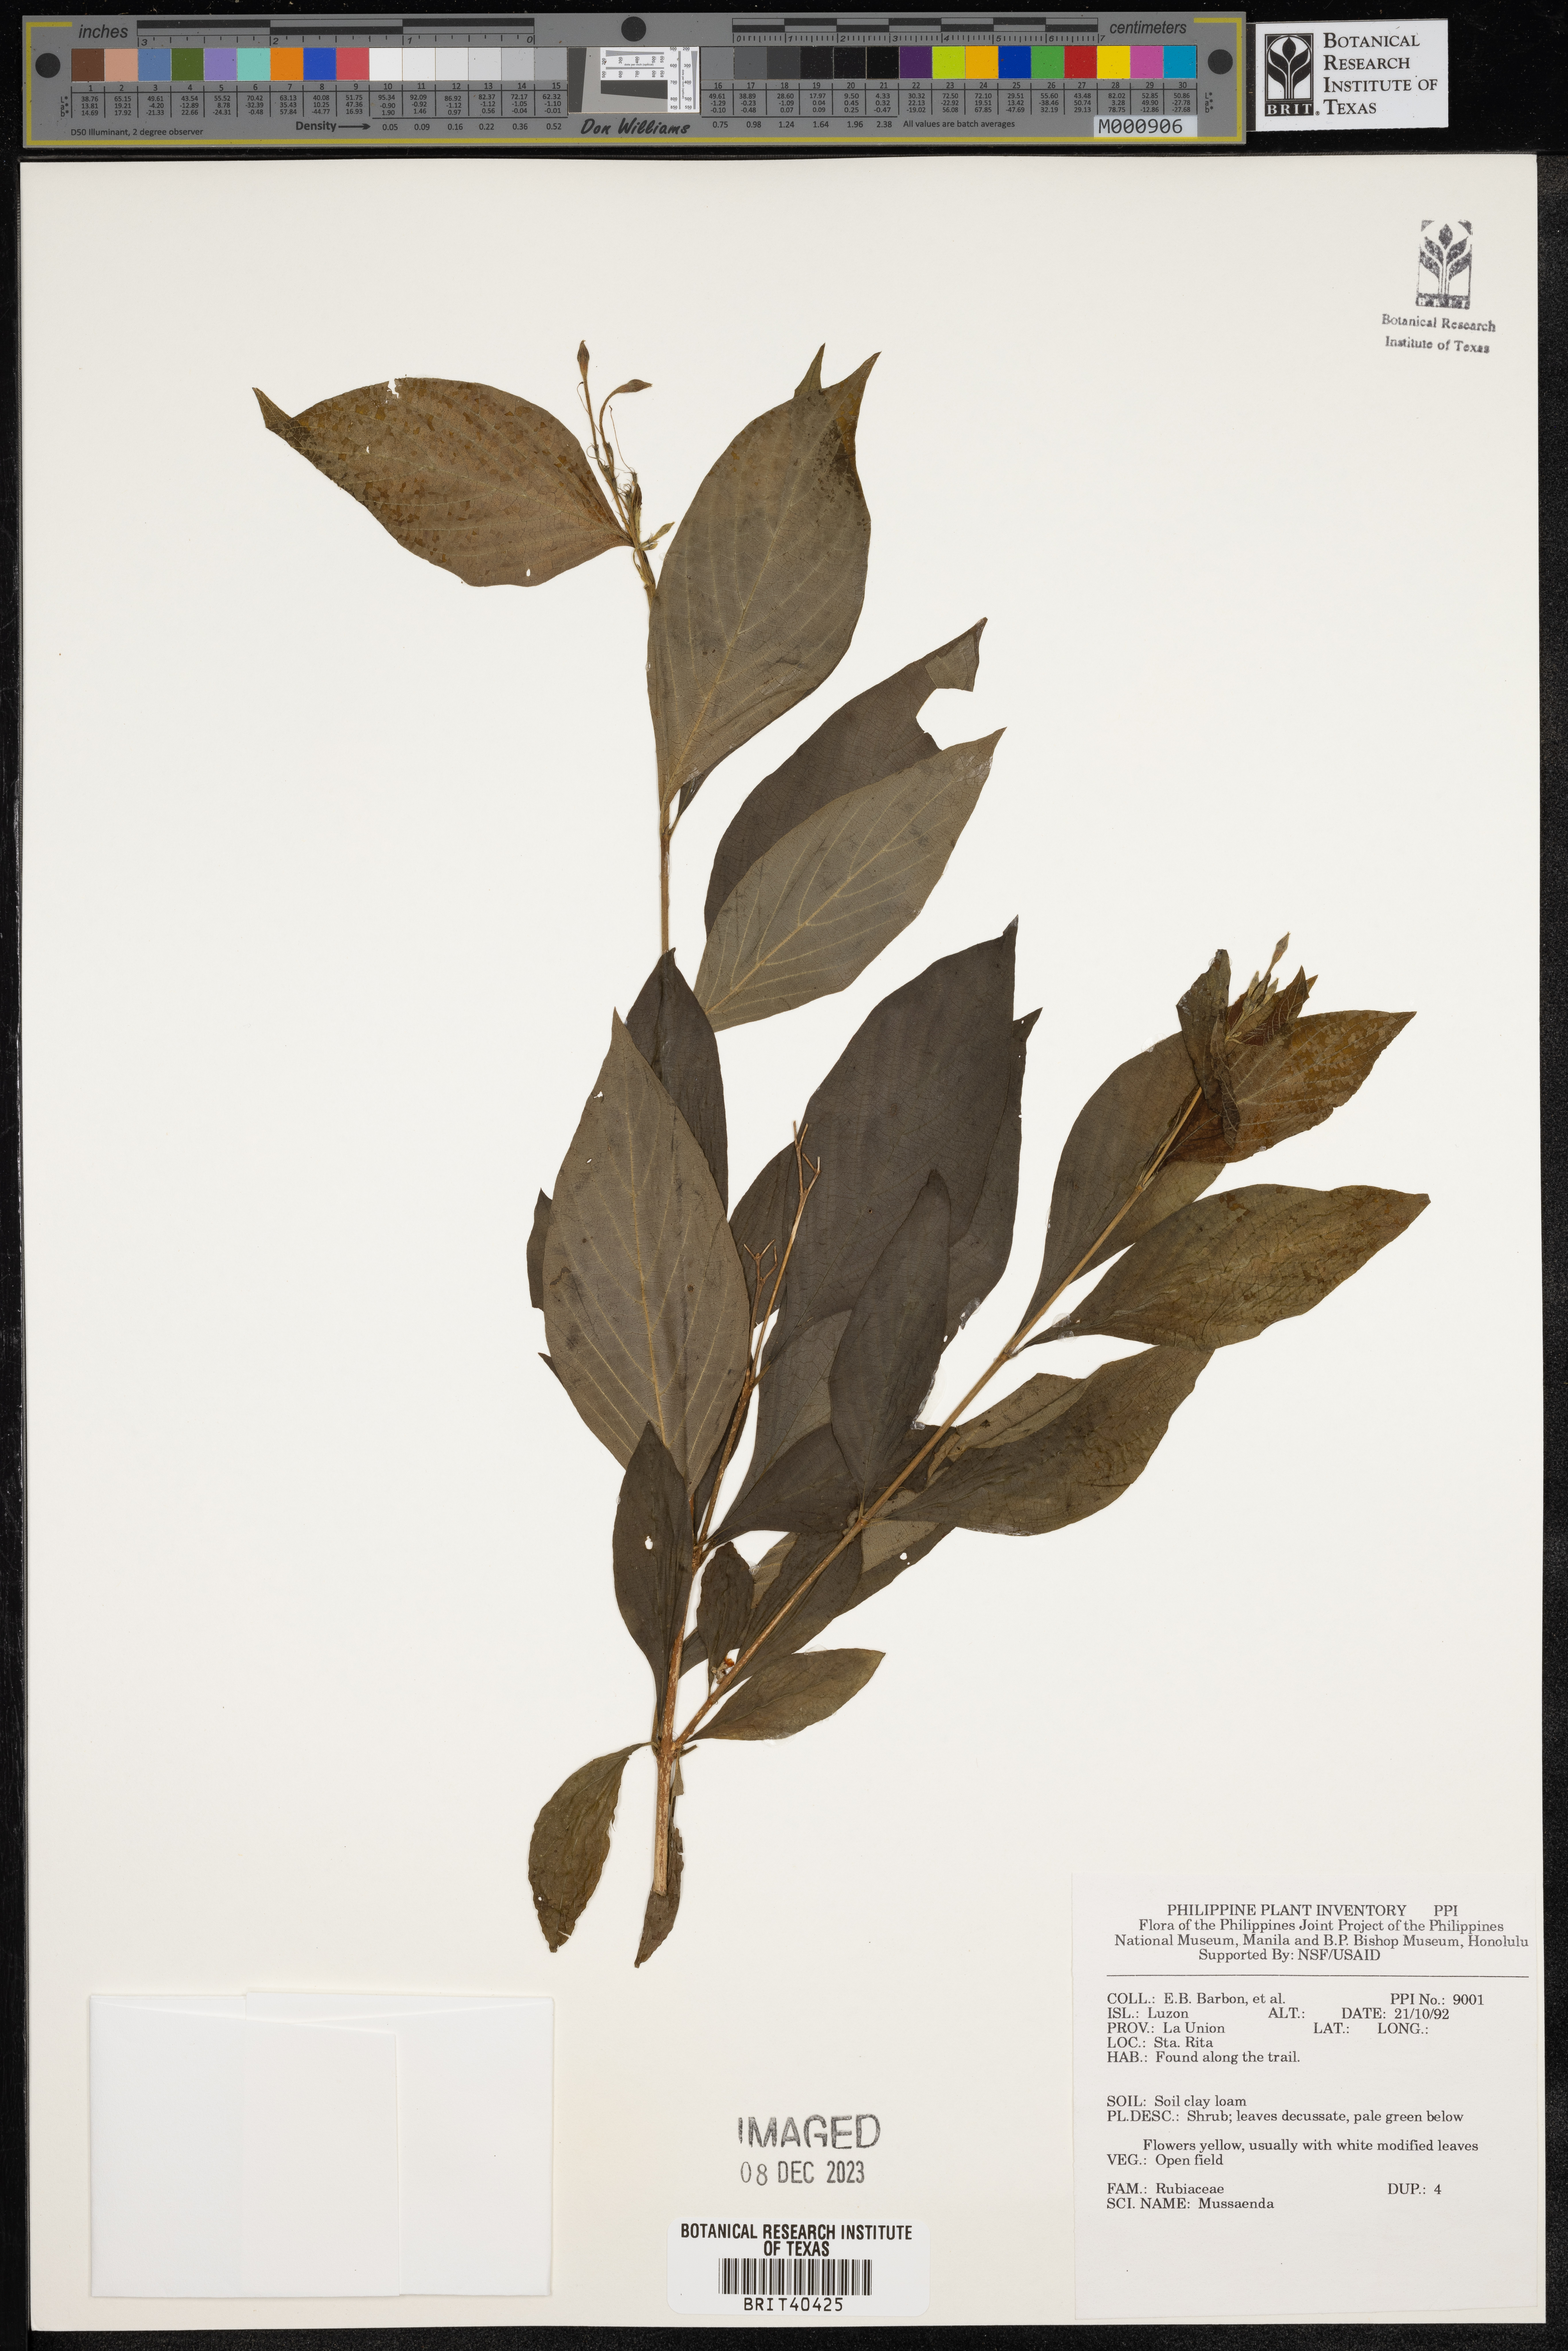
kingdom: Plantae
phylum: Tracheophyta
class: Magnoliopsida
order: Gentianales
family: Rubiaceae
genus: Mussaenda
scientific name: Mussaenda
